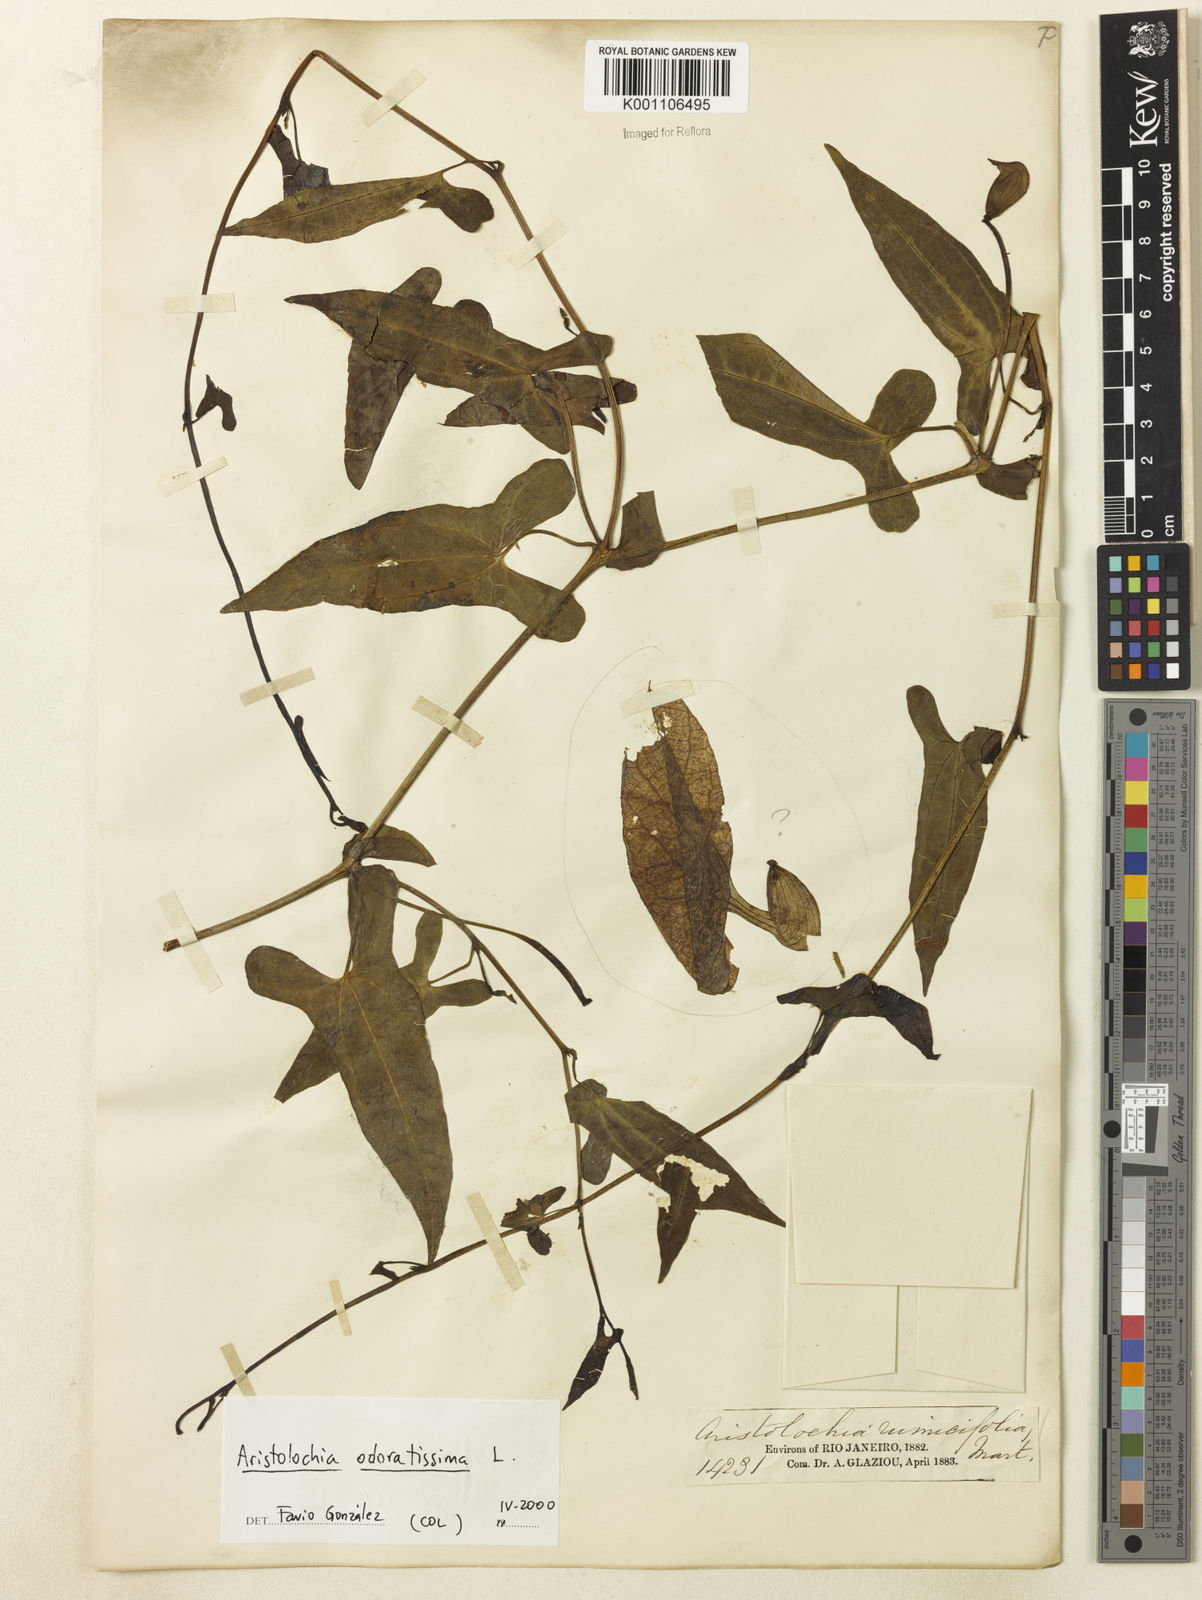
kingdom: Plantae
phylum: Tracheophyta
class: Magnoliopsida
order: Piperales
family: Aristolochiaceae
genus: Aristolochia
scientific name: Aristolochia odoratissima
